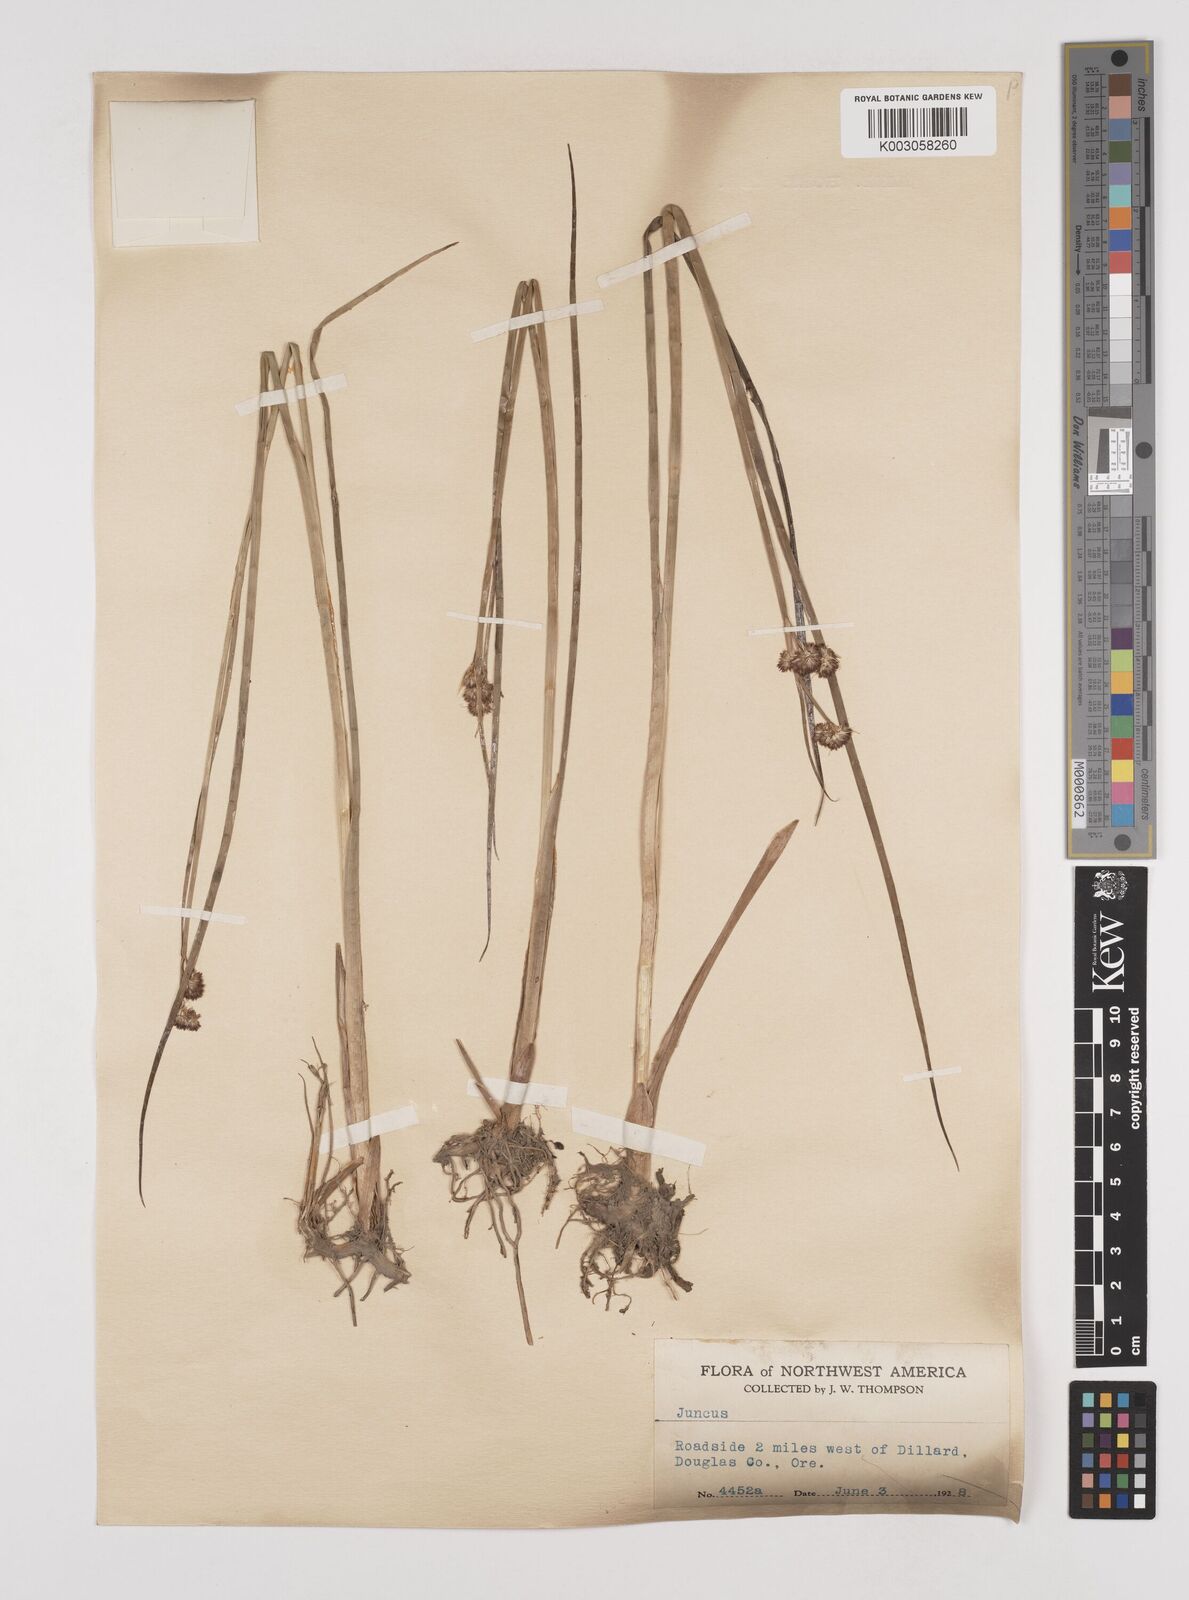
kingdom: Plantae
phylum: Tracheophyta
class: Liliopsida
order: Poales
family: Juncaceae
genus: Juncus
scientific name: Juncus
